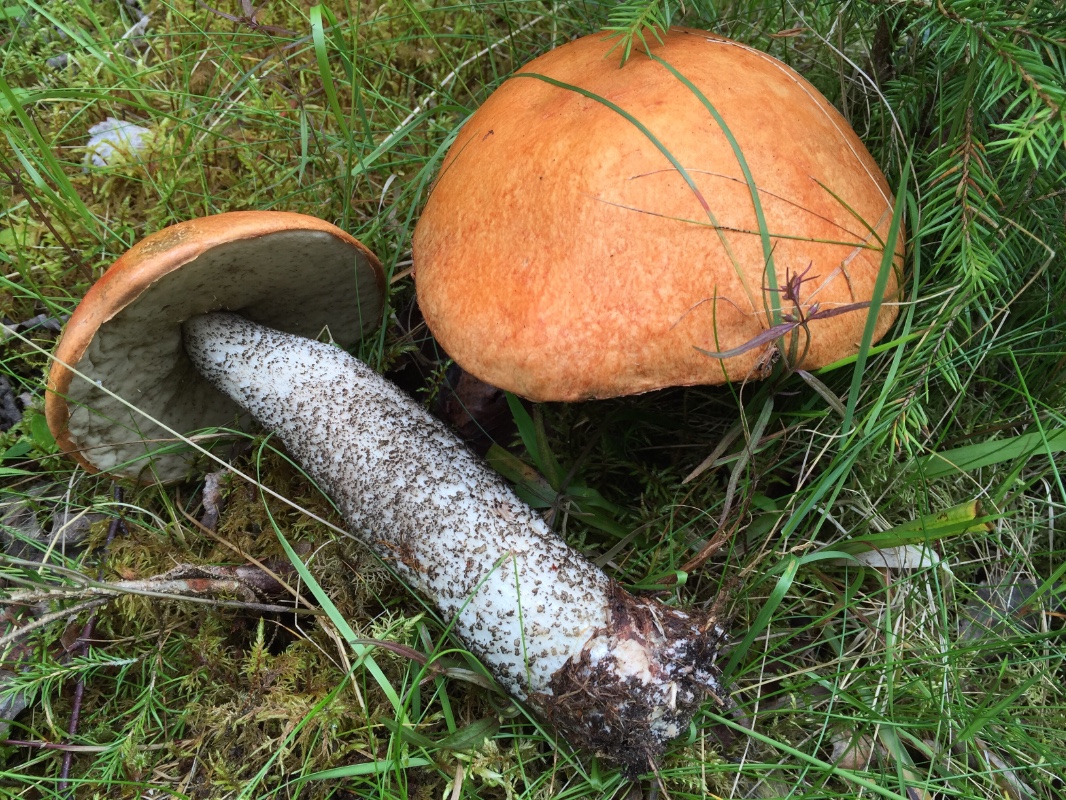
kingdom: Fungi
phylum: Basidiomycota
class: Agaricomycetes
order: Boletales
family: Boletaceae
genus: Leccinum
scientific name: Leccinum versipelle
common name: orange skælrørhat
